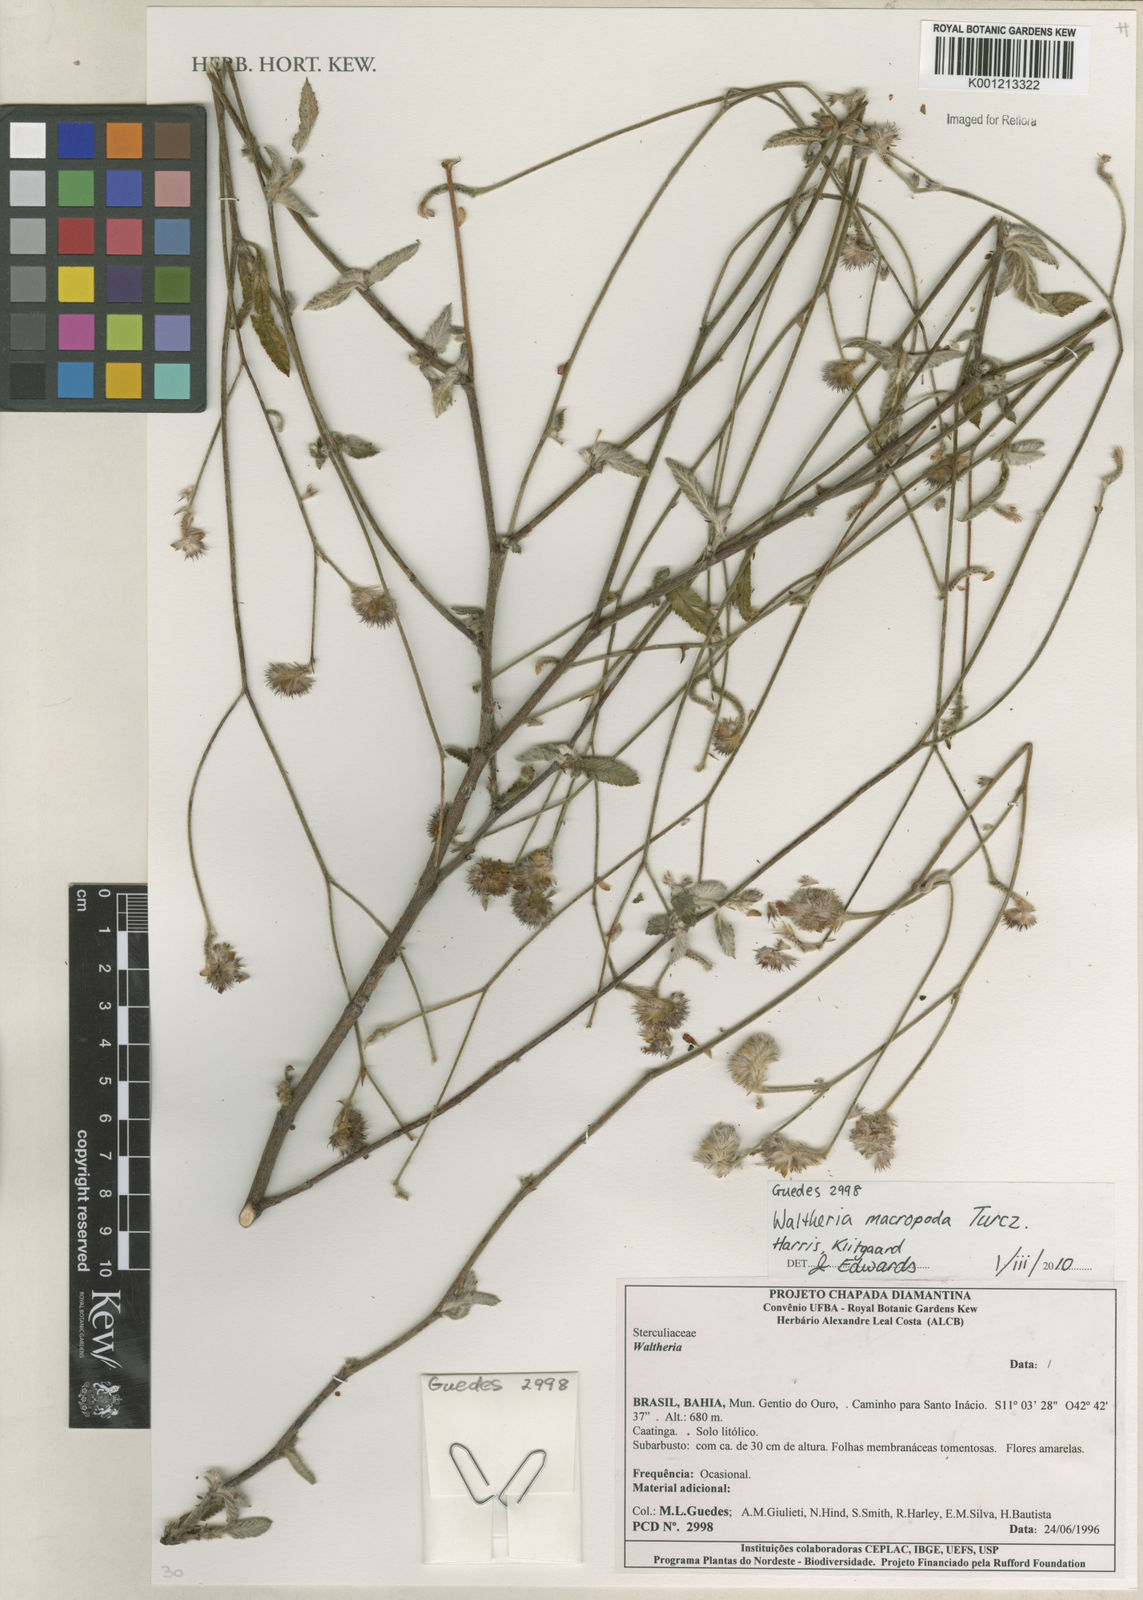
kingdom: Plantae
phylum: Tracheophyta
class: Magnoliopsida
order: Malvales
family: Malvaceae
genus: Waltheria
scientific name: Waltheria bracteosa
